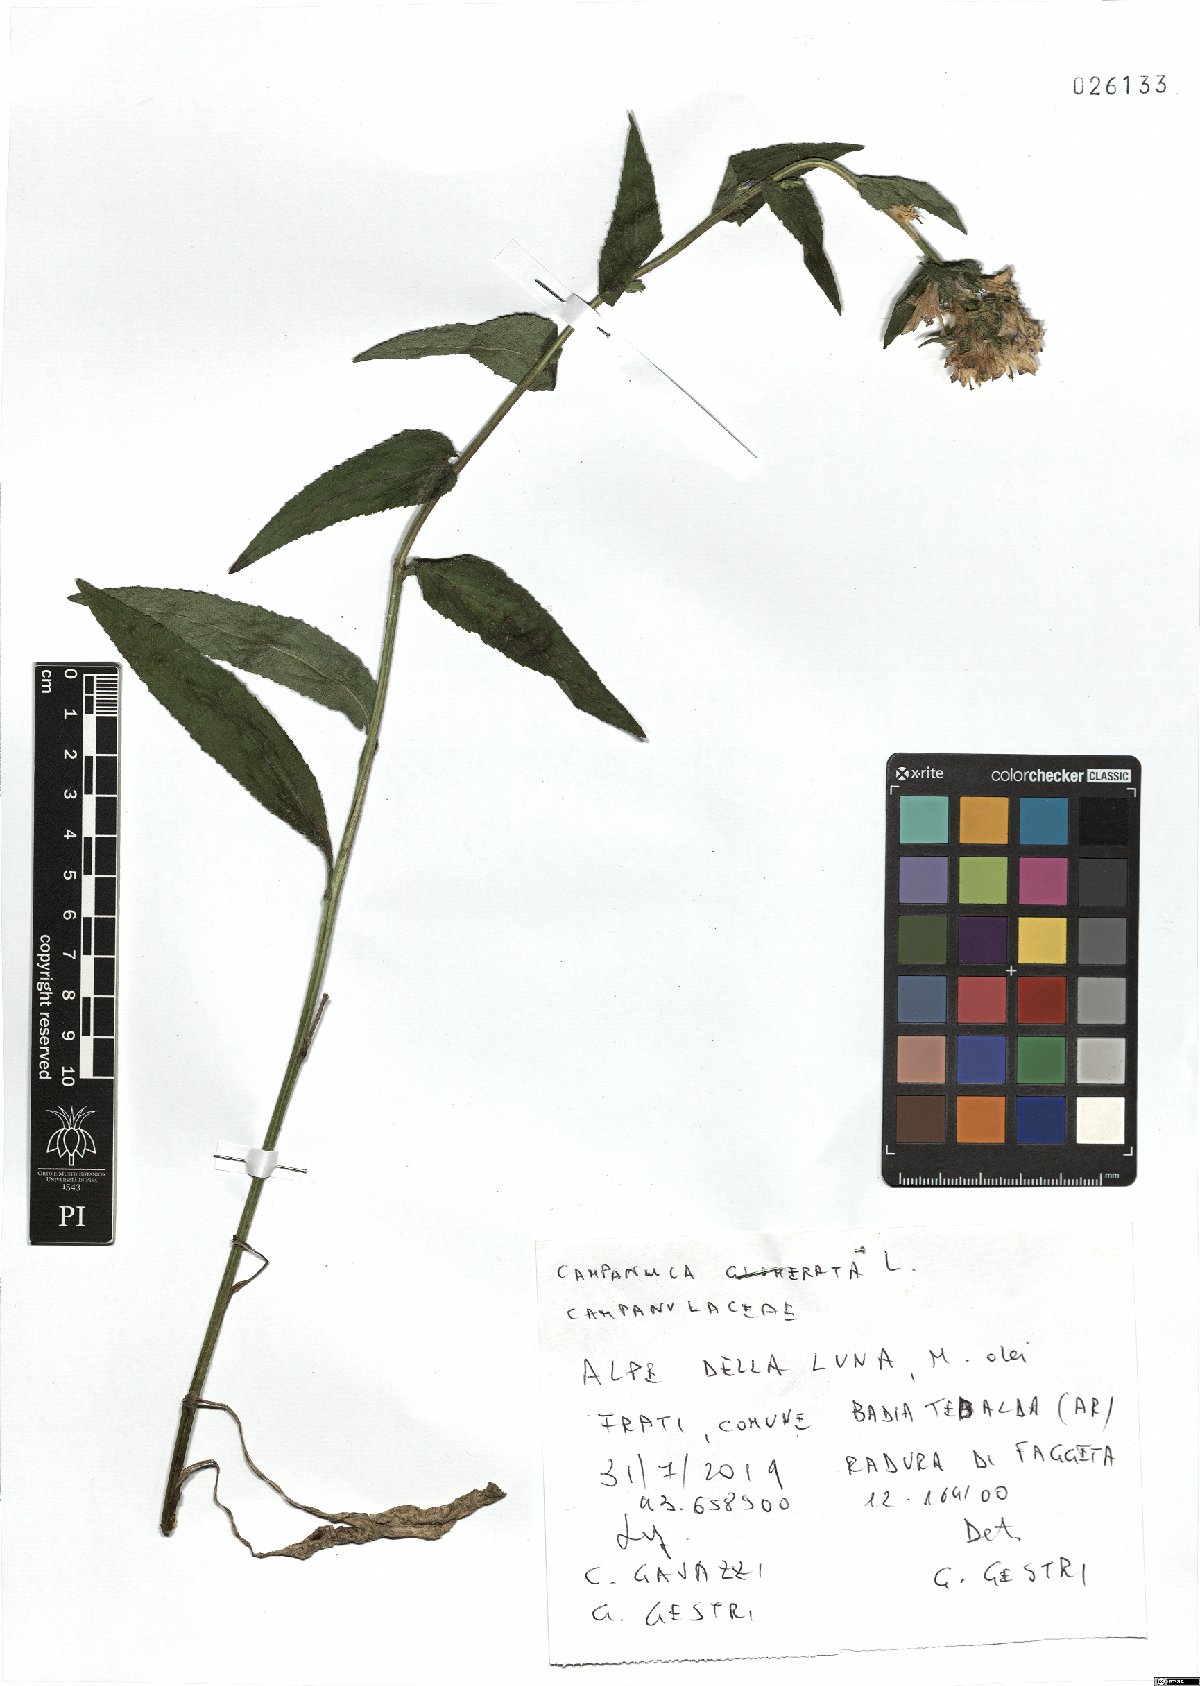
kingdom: Plantae
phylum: Tracheophyta
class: Magnoliopsida
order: Asterales
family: Campanulaceae
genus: Campanula
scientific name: Campanula glomerata
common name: Clustered bellflower
